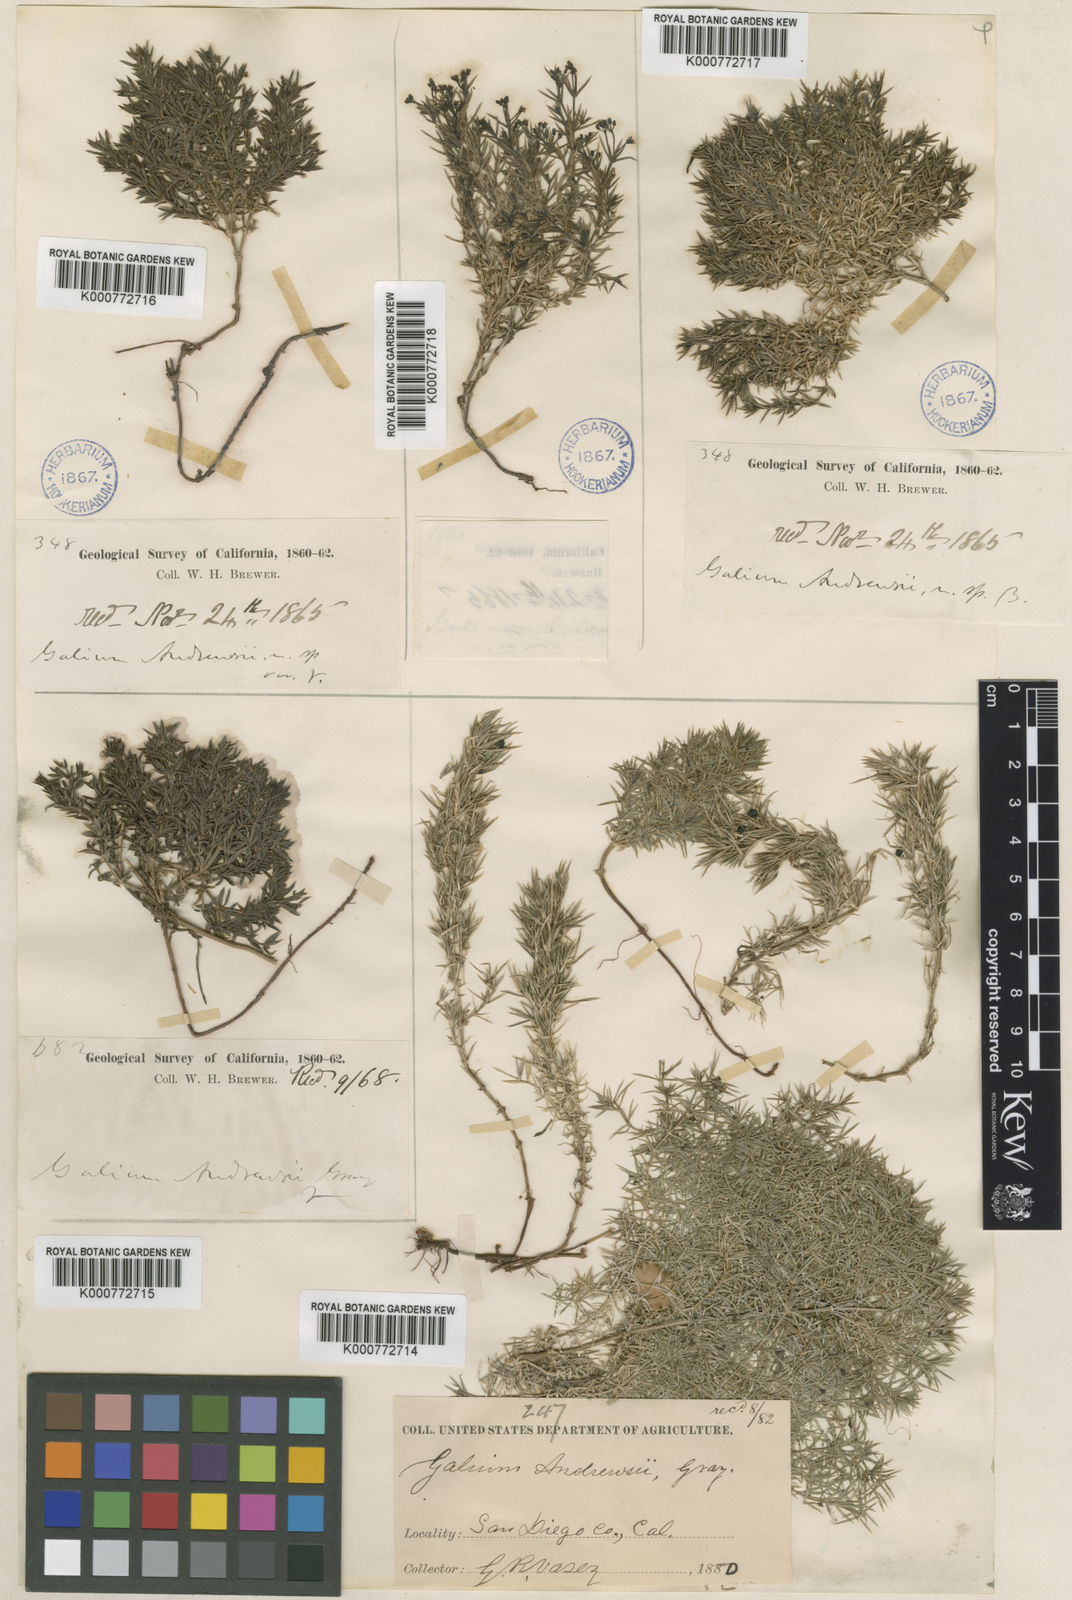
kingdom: Plantae
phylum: Tracheophyta
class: Magnoliopsida
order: Gentianales
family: Rubiaceae
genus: Galium
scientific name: Galium andrewsii
